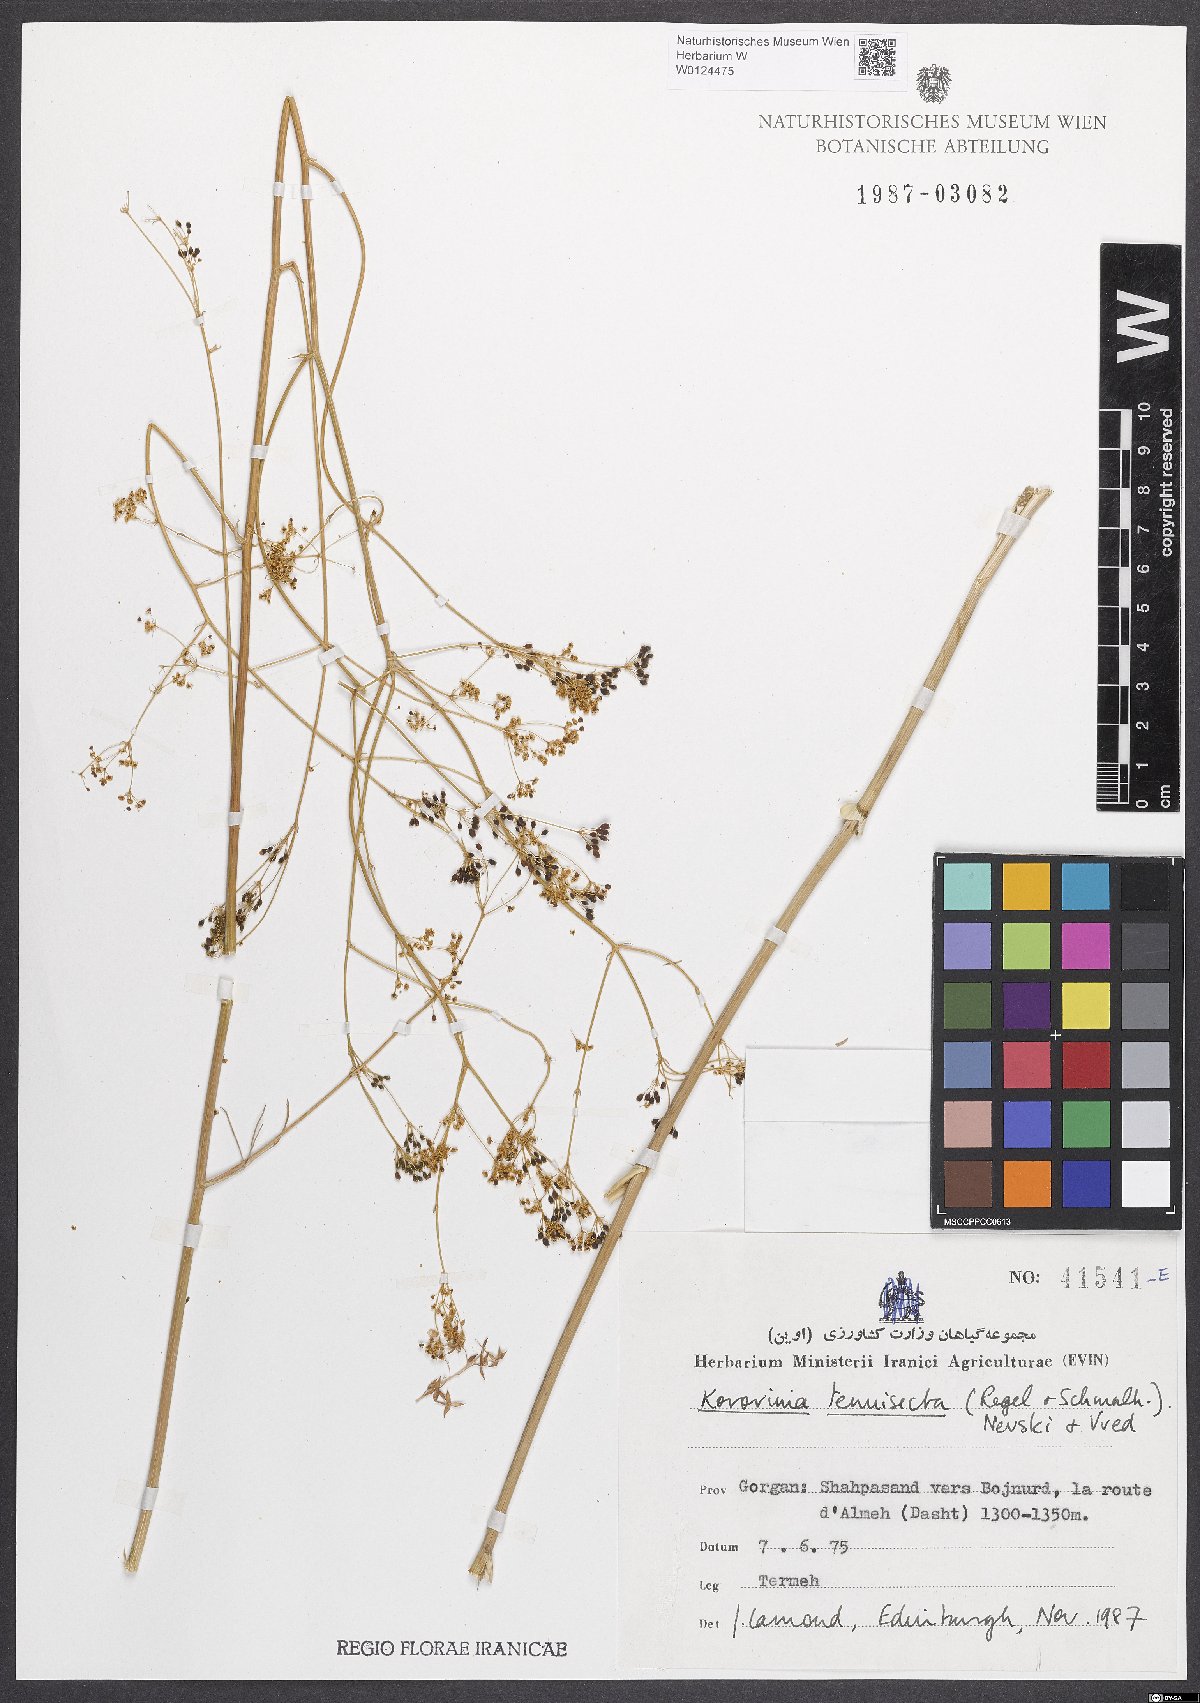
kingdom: Plantae
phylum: Tracheophyta
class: Magnoliopsida
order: Apiales
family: Apiaceae
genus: Galagania
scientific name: Galagania tenuisecta
